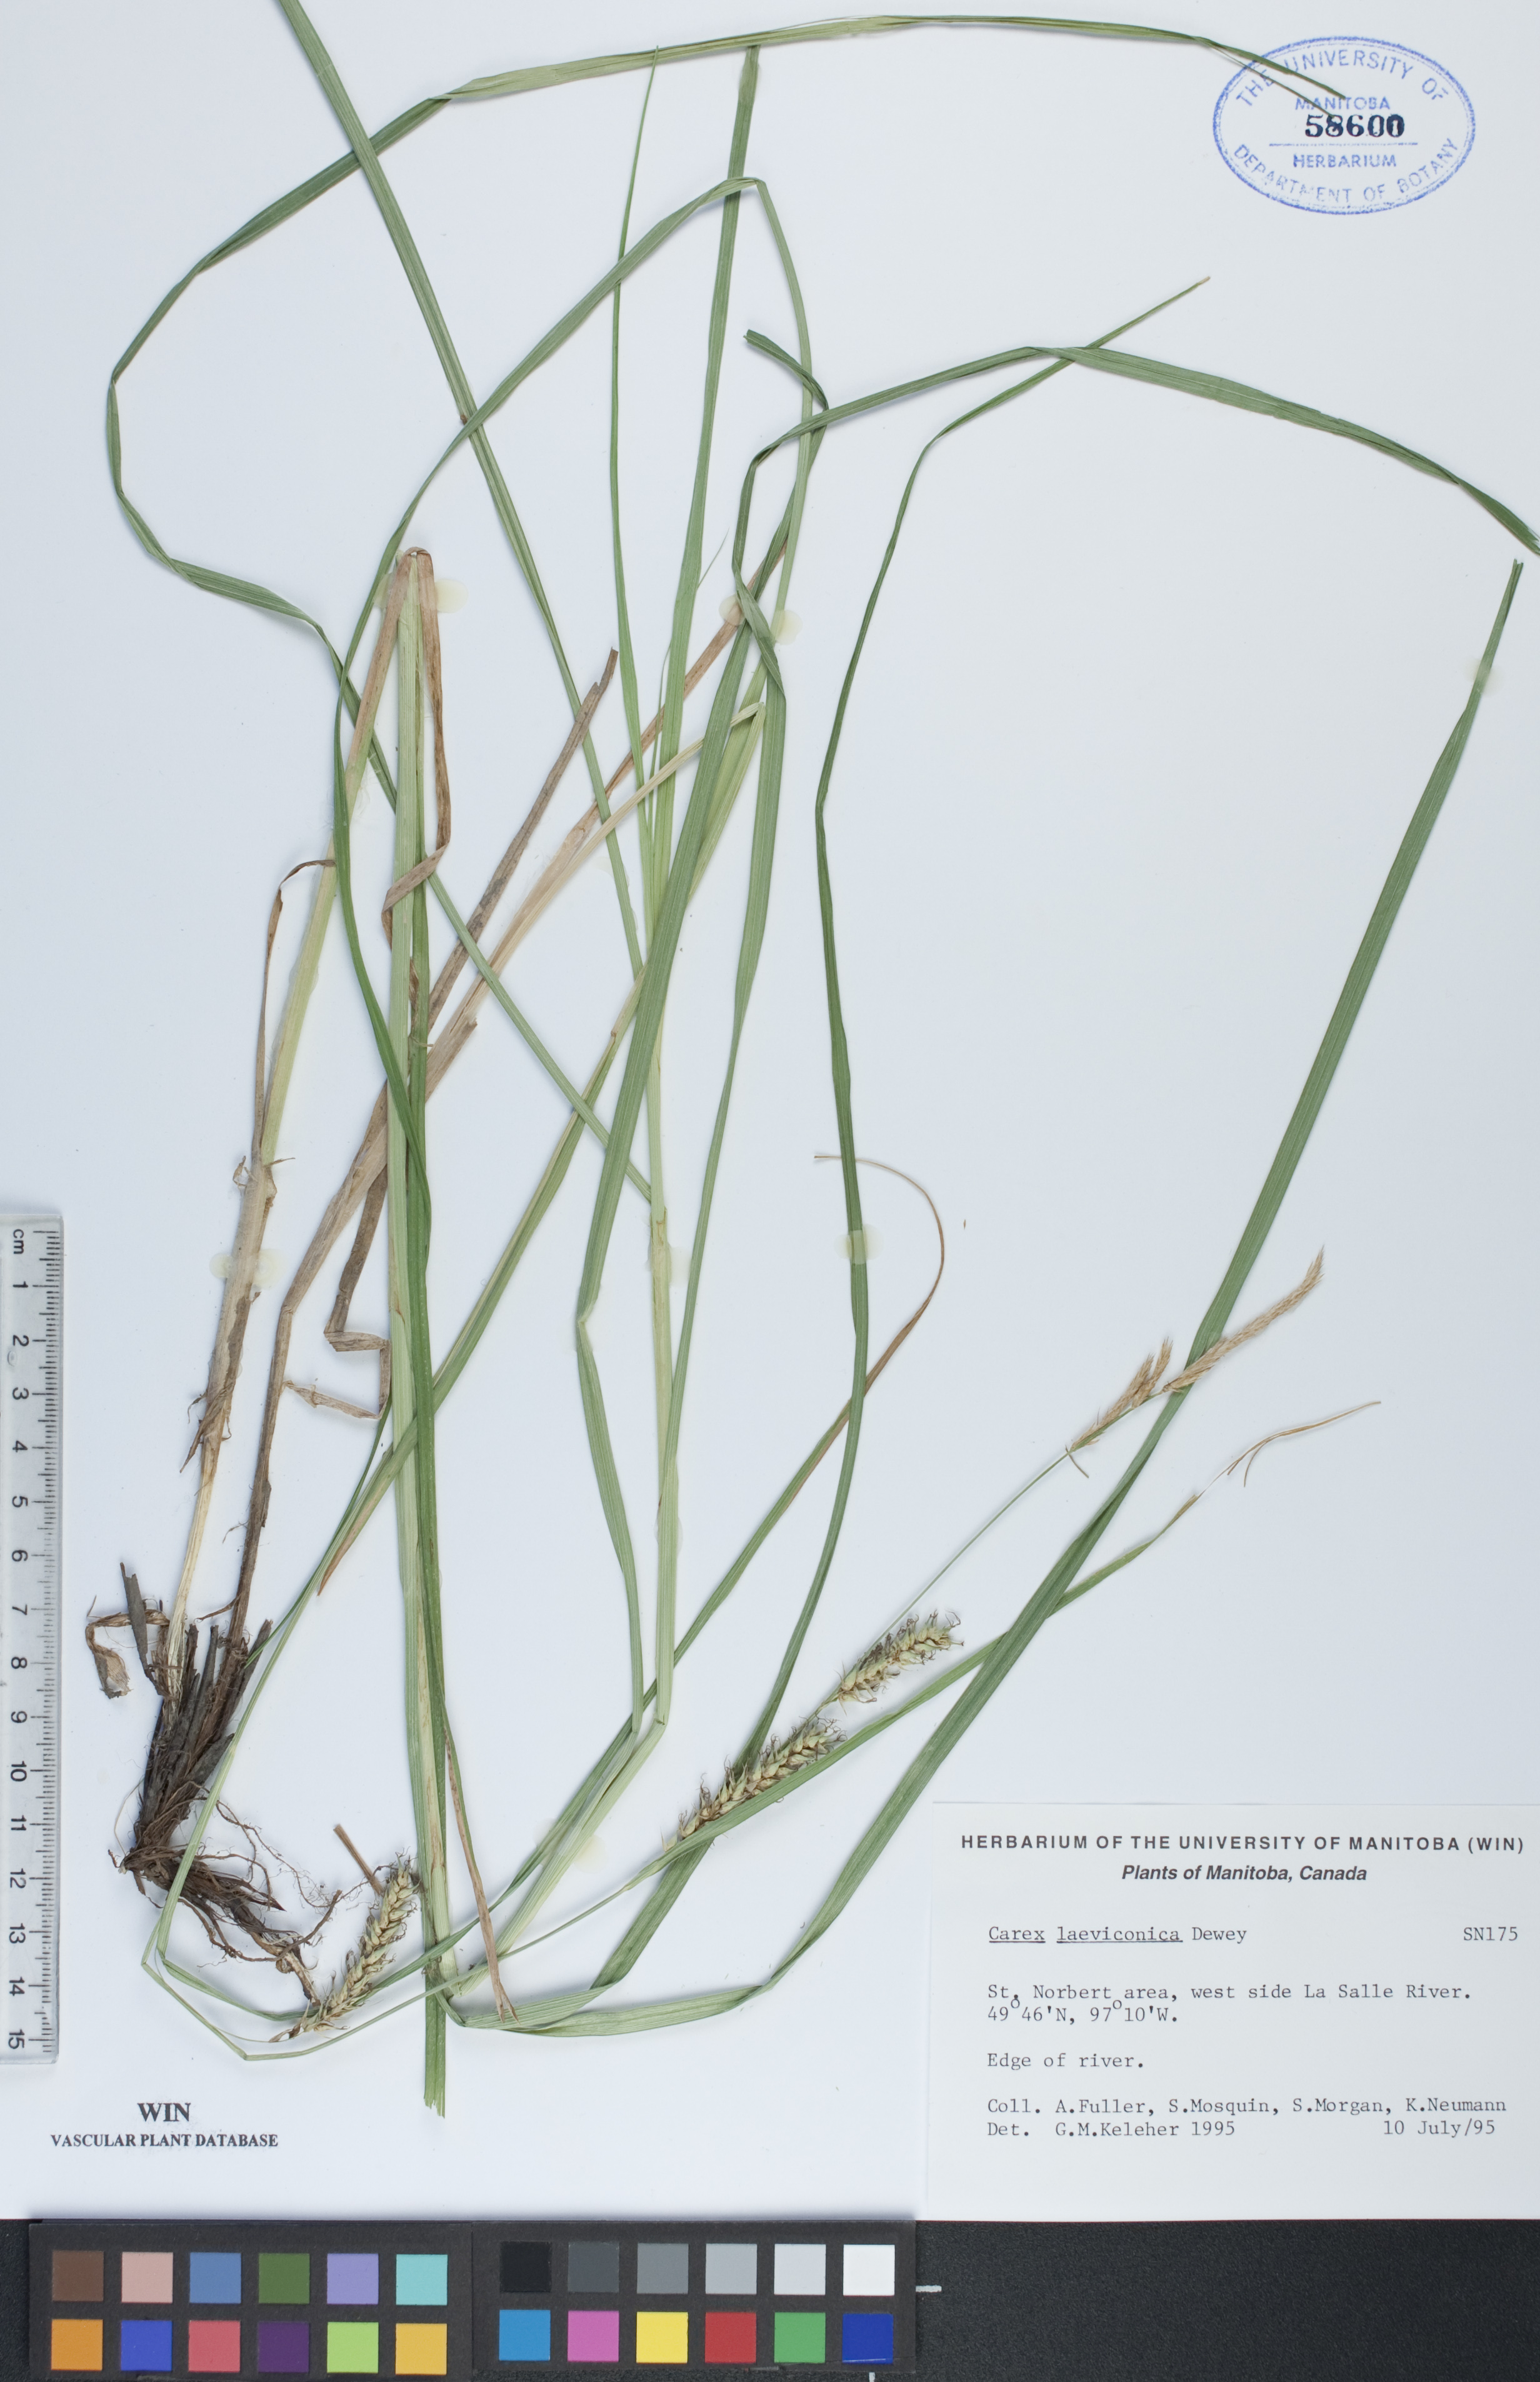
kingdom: Plantae
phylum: Tracheophyta
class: Liliopsida
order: Poales
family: Cyperaceae
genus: Carex
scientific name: Carex laeviconica
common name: Plains slough sedge
